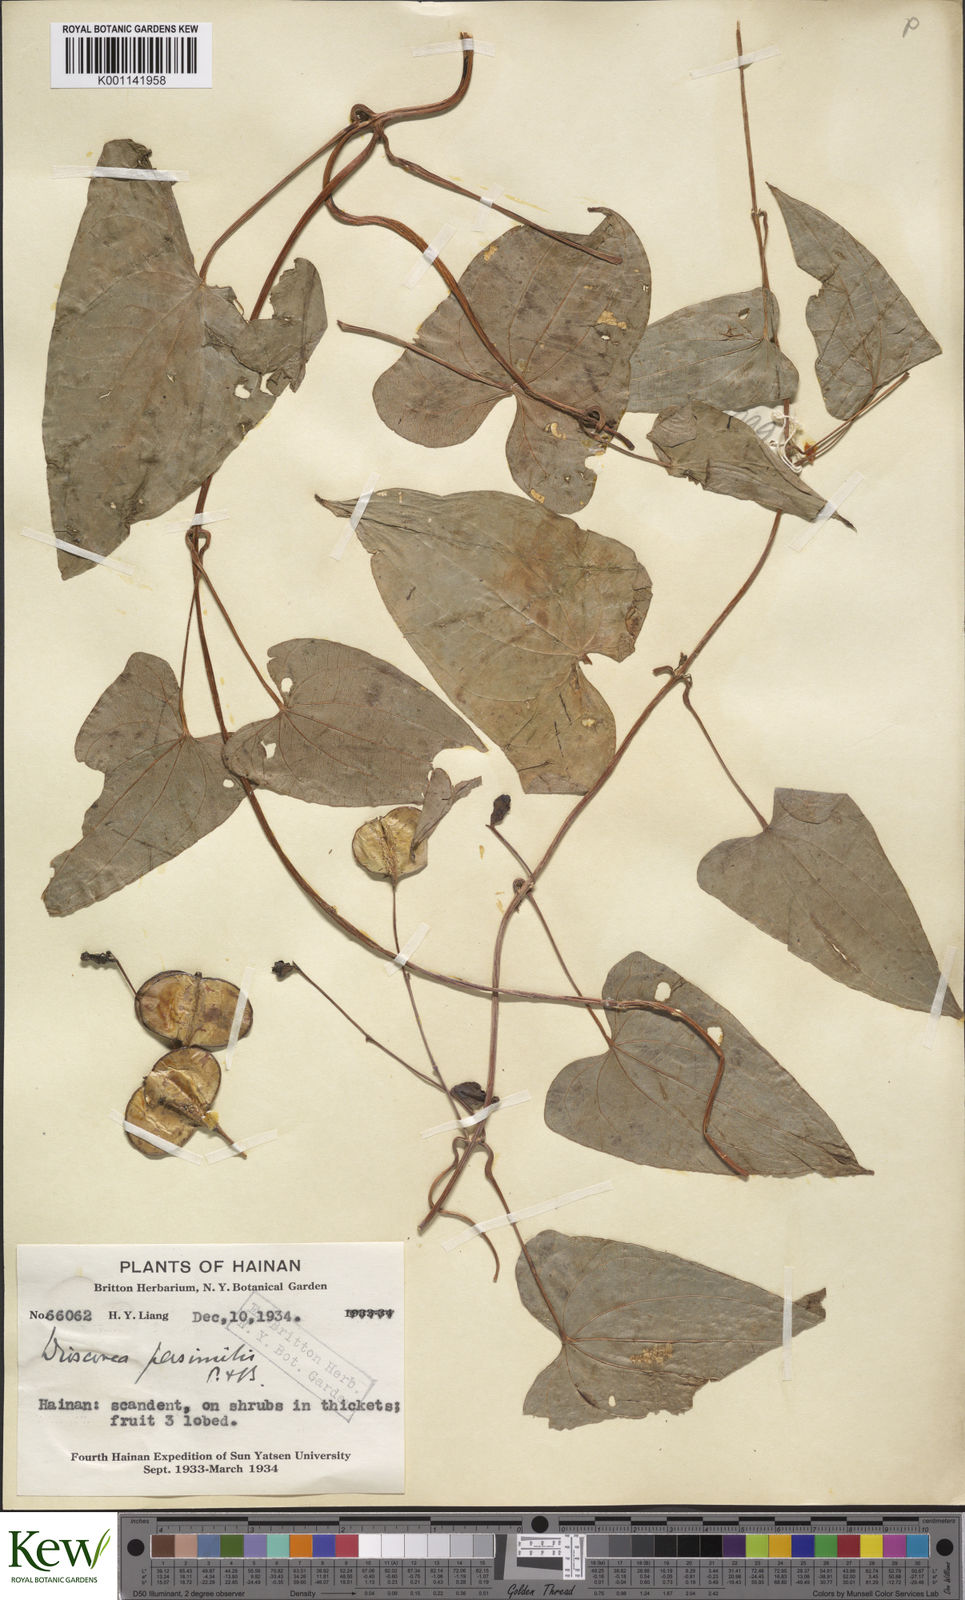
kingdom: Plantae
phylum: Tracheophyta
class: Liliopsida
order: Dioscoreales
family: Dioscoreaceae
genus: Dioscorea
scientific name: Dioscorea hamiltonii
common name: Mountain yam
